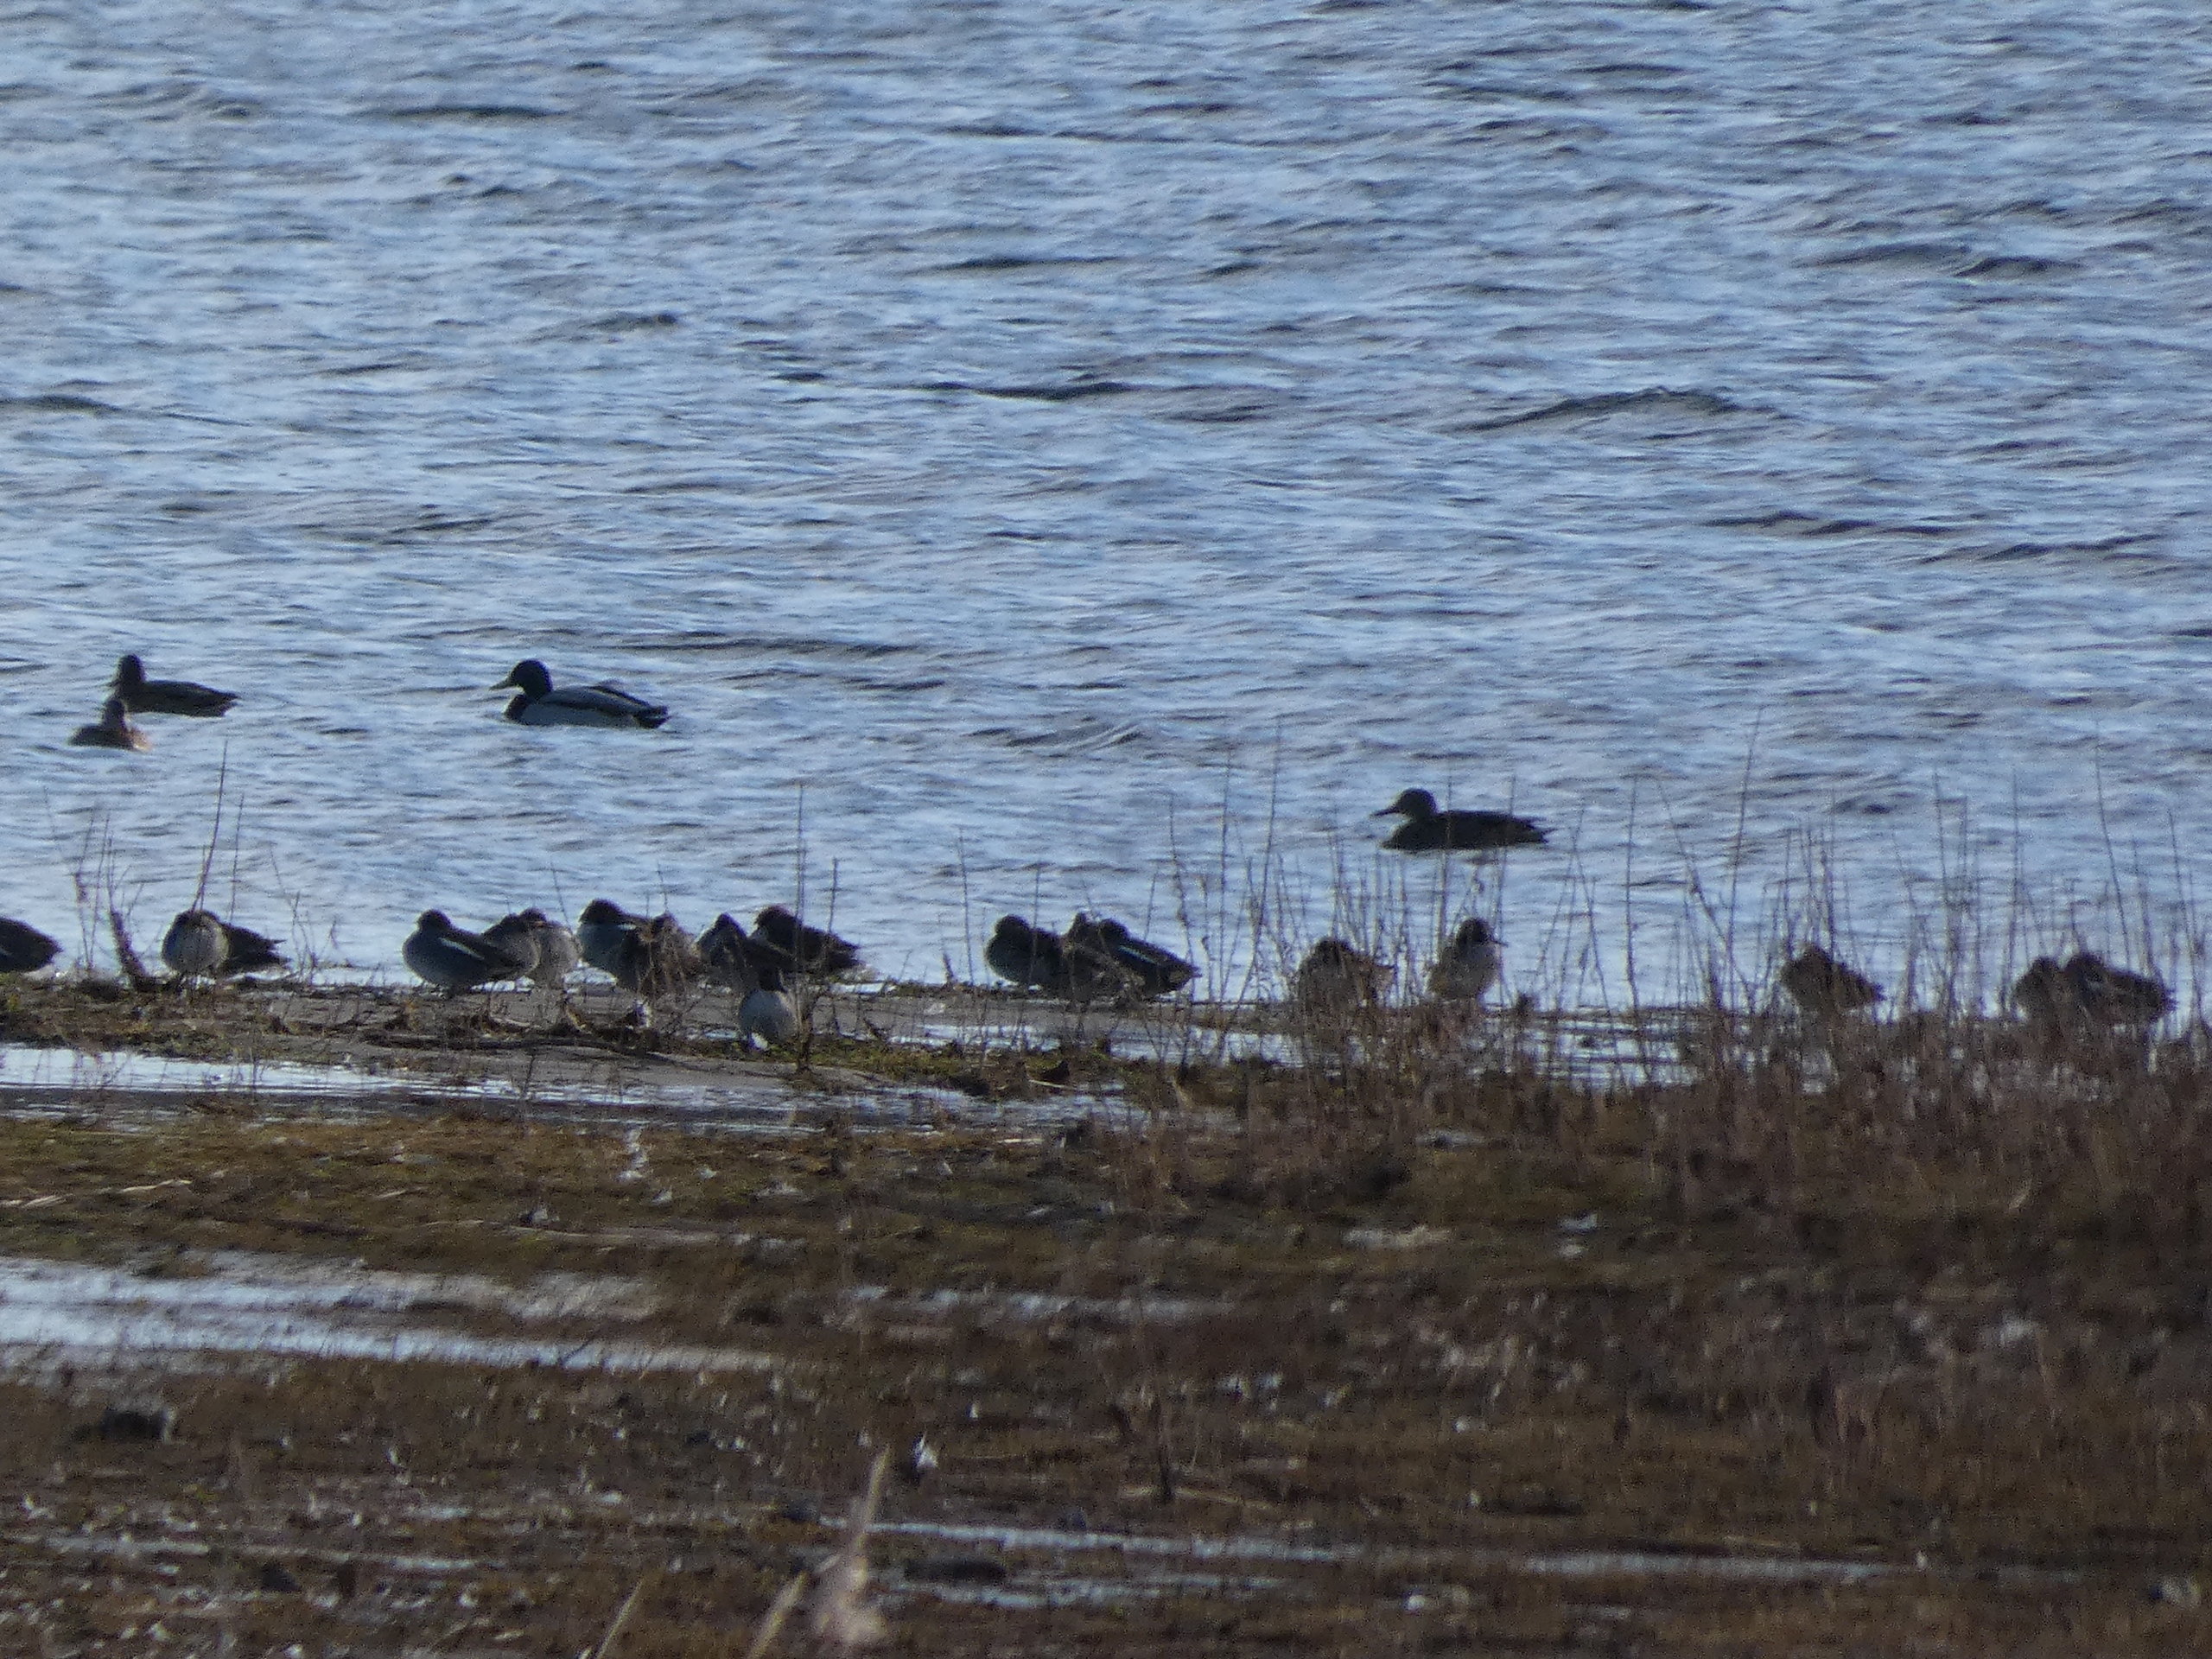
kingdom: Animalia
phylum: Chordata
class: Aves
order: Anseriformes
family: Anatidae
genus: Anas
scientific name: Anas platyrhynchos
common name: Gråand
